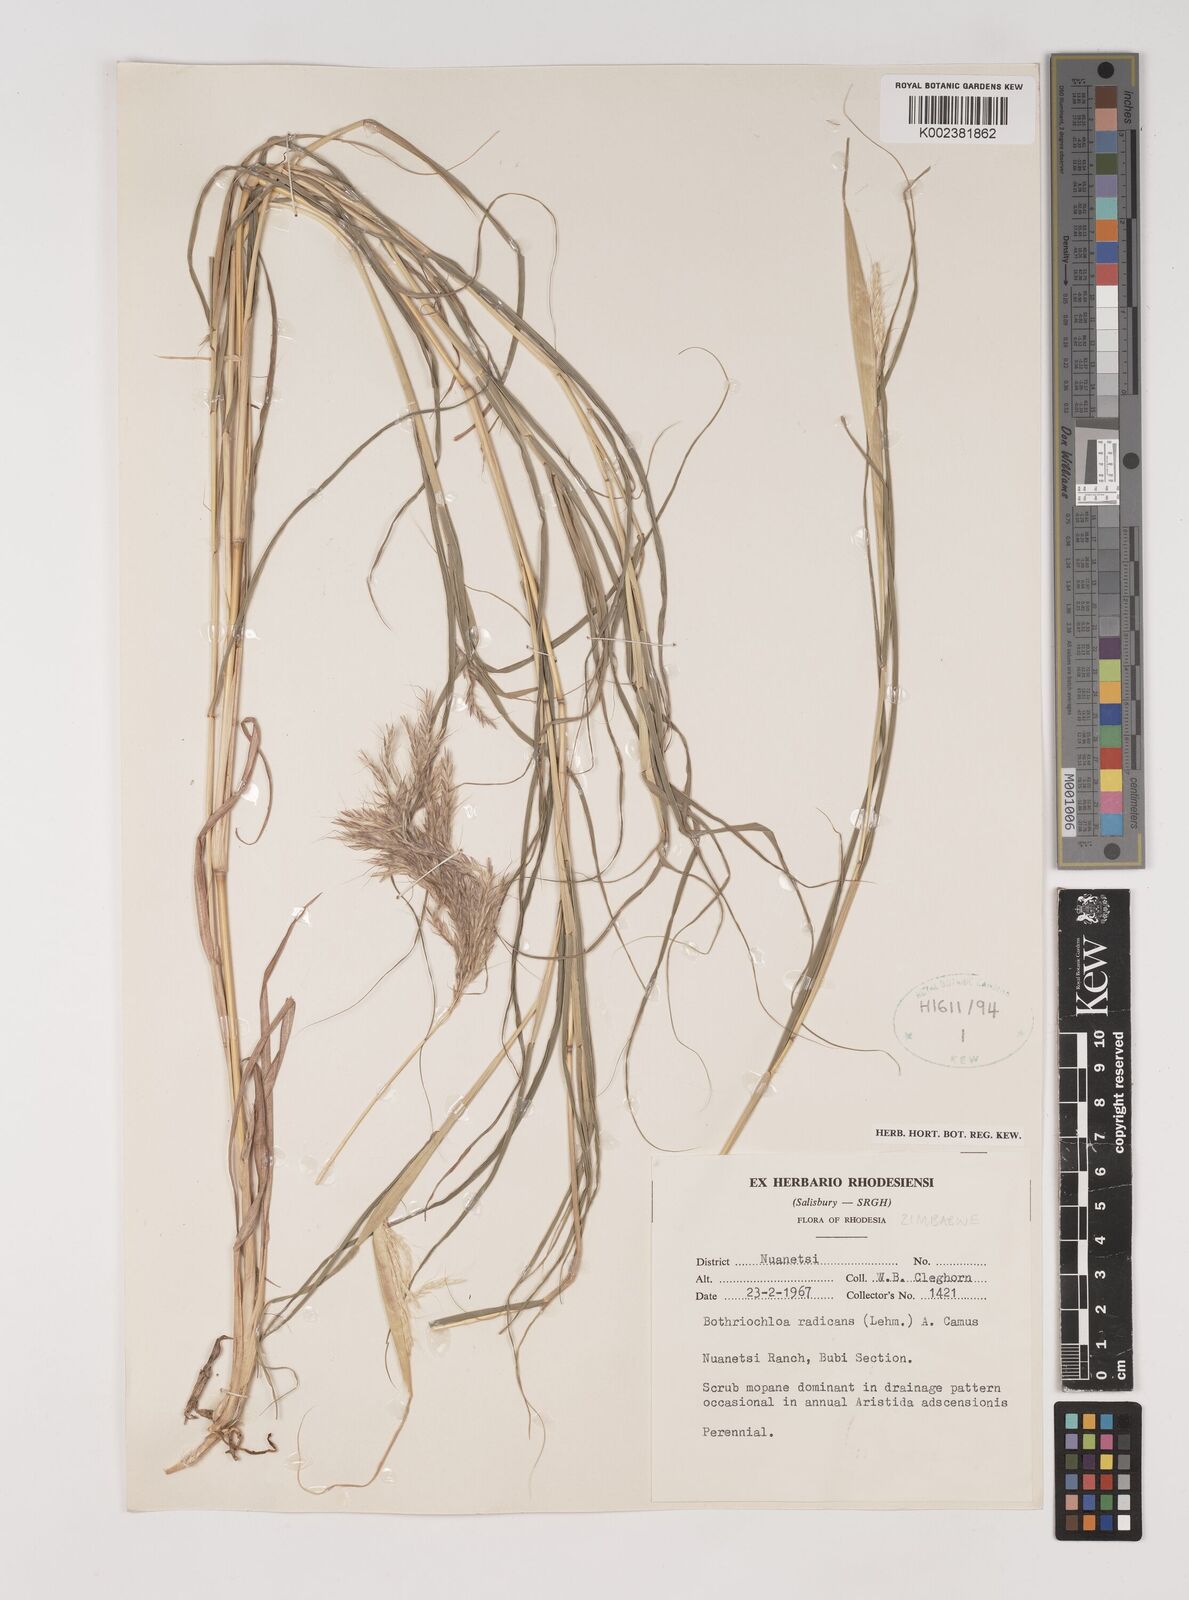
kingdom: Plantae
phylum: Tracheophyta
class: Liliopsida
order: Poales
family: Poaceae
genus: Bothriochloa
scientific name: Bothriochloa radicans
